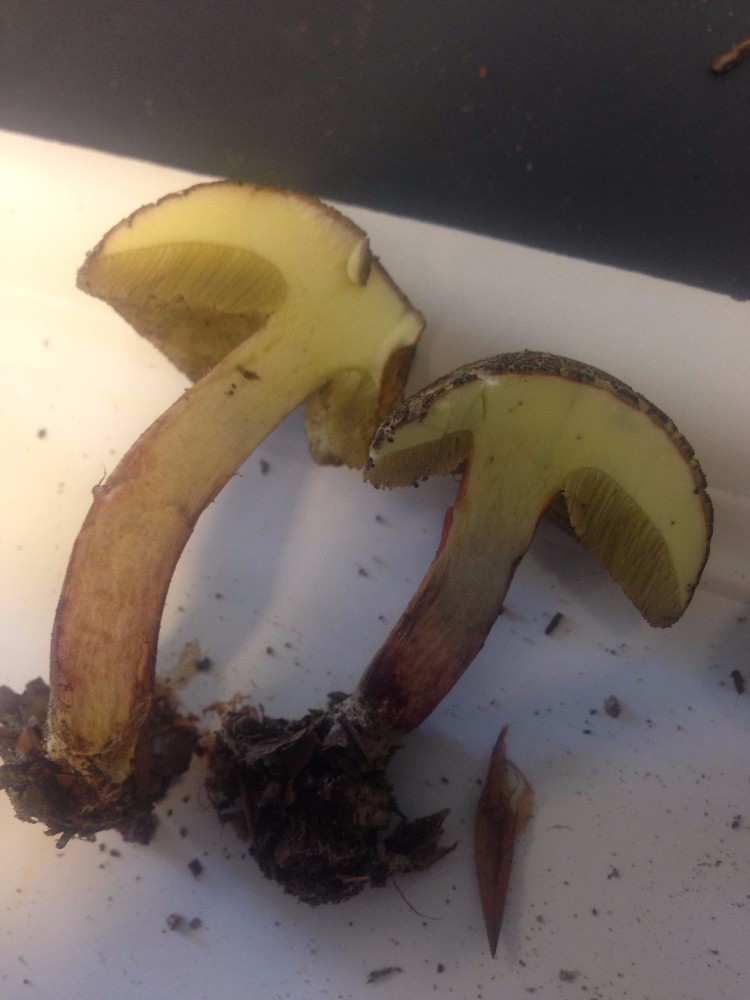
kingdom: Fungi
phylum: Basidiomycota
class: Agaricomycetes
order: Boletales
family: Boletaceae
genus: Xerocomellus
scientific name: Xerocomellus chrysenteron
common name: rødsprukken rørhat
